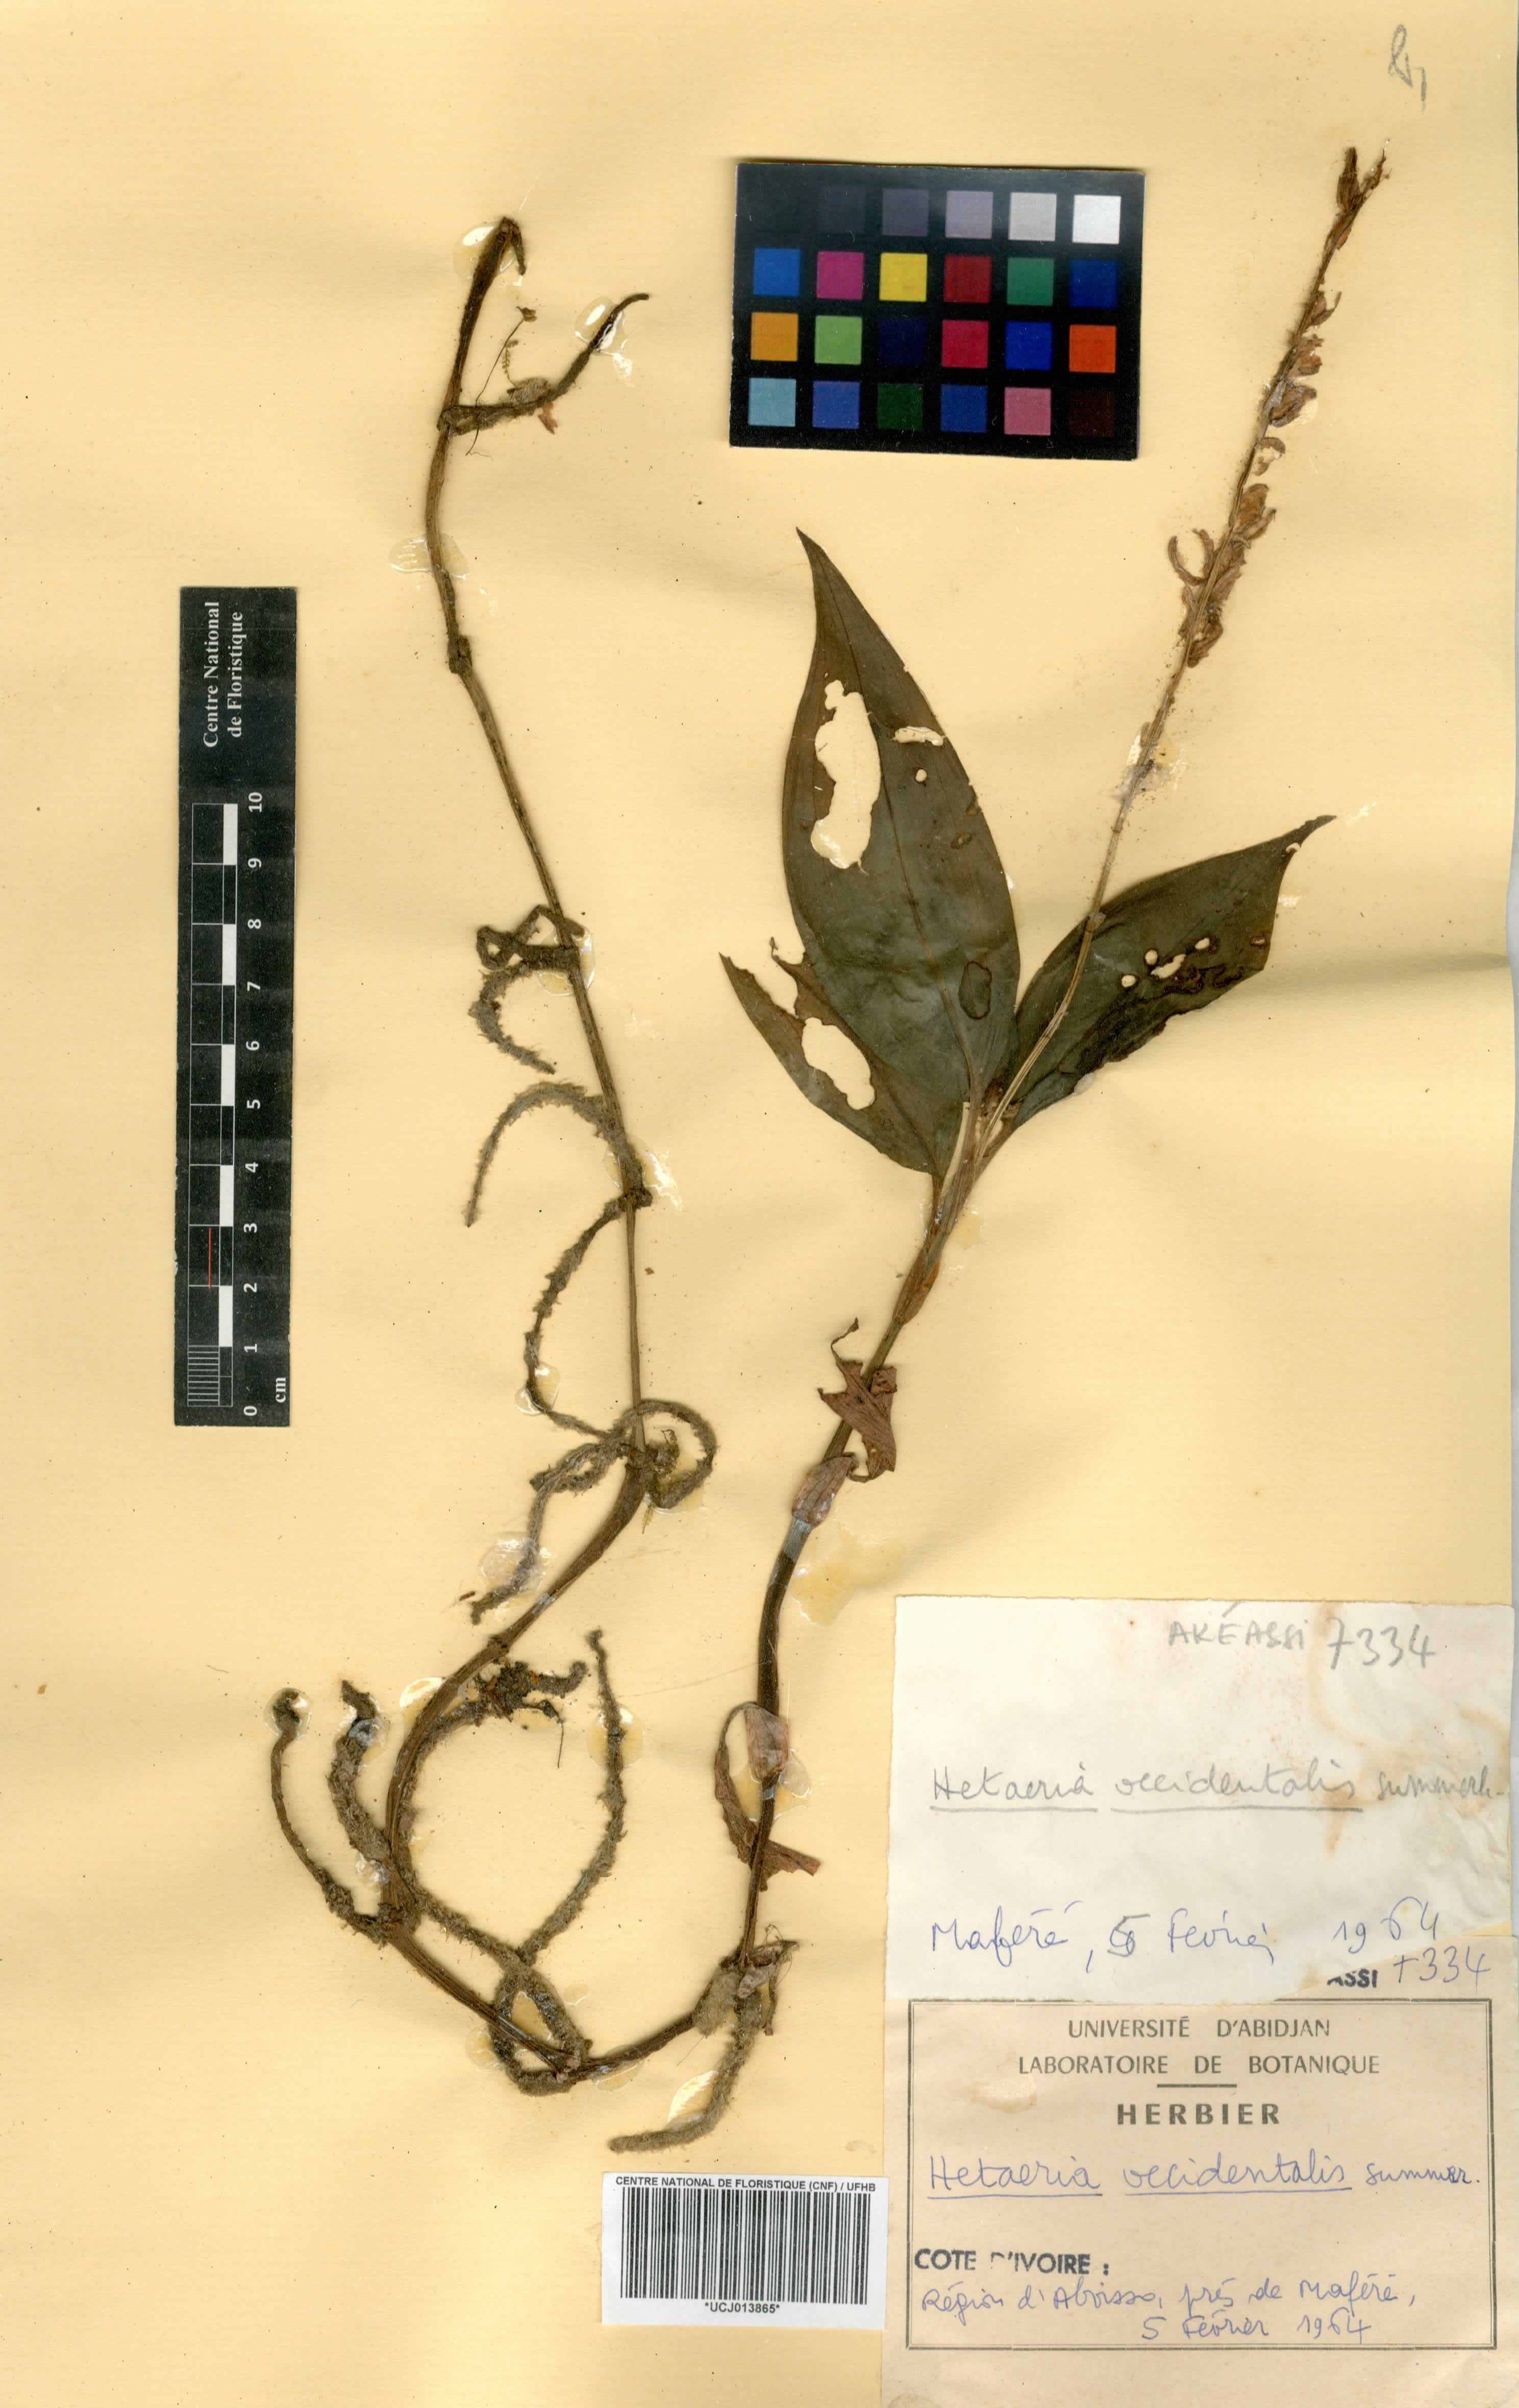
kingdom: Plantae
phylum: Tracheophyta
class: Liliopsida
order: Asparagales
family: Orchidaceae
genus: Hetaeria
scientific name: Hetaeria occidentalis
